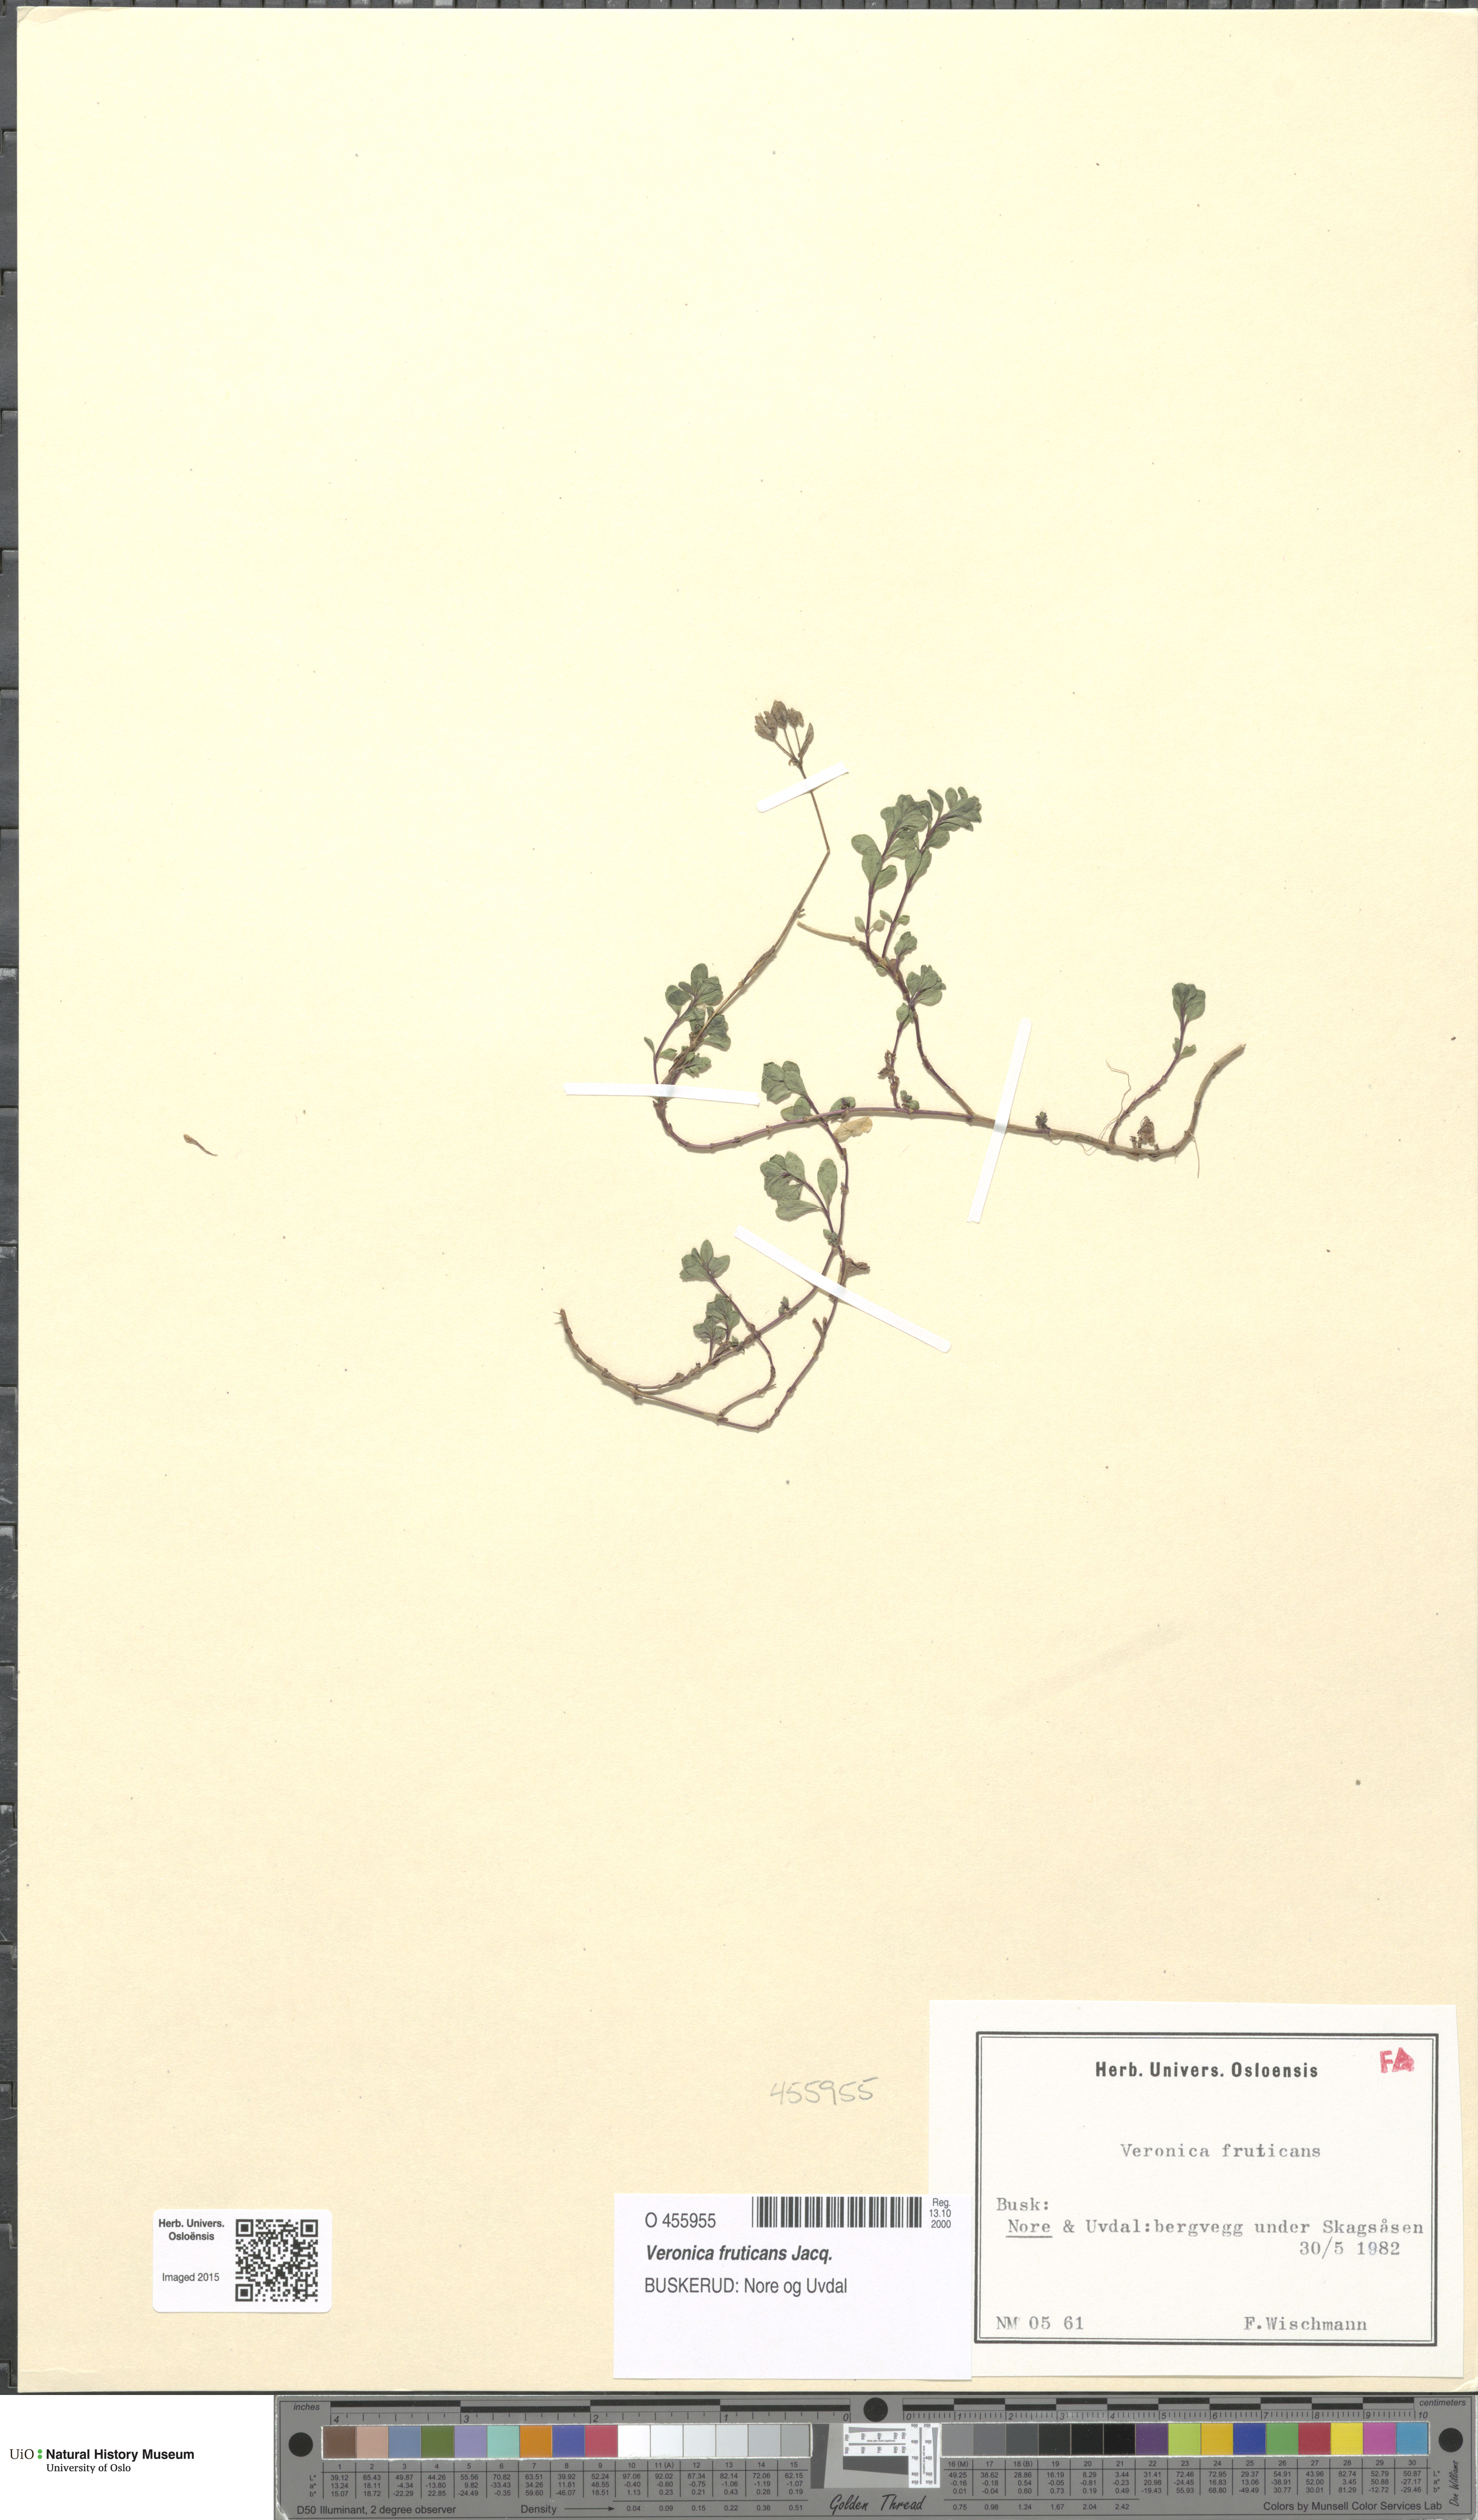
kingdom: Plantae
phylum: Tracheophyta
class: Magnoliopsida
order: Lamiales
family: Plantaginaceae
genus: Veronica
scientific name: Veronica fruticans
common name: Rock speedwell
